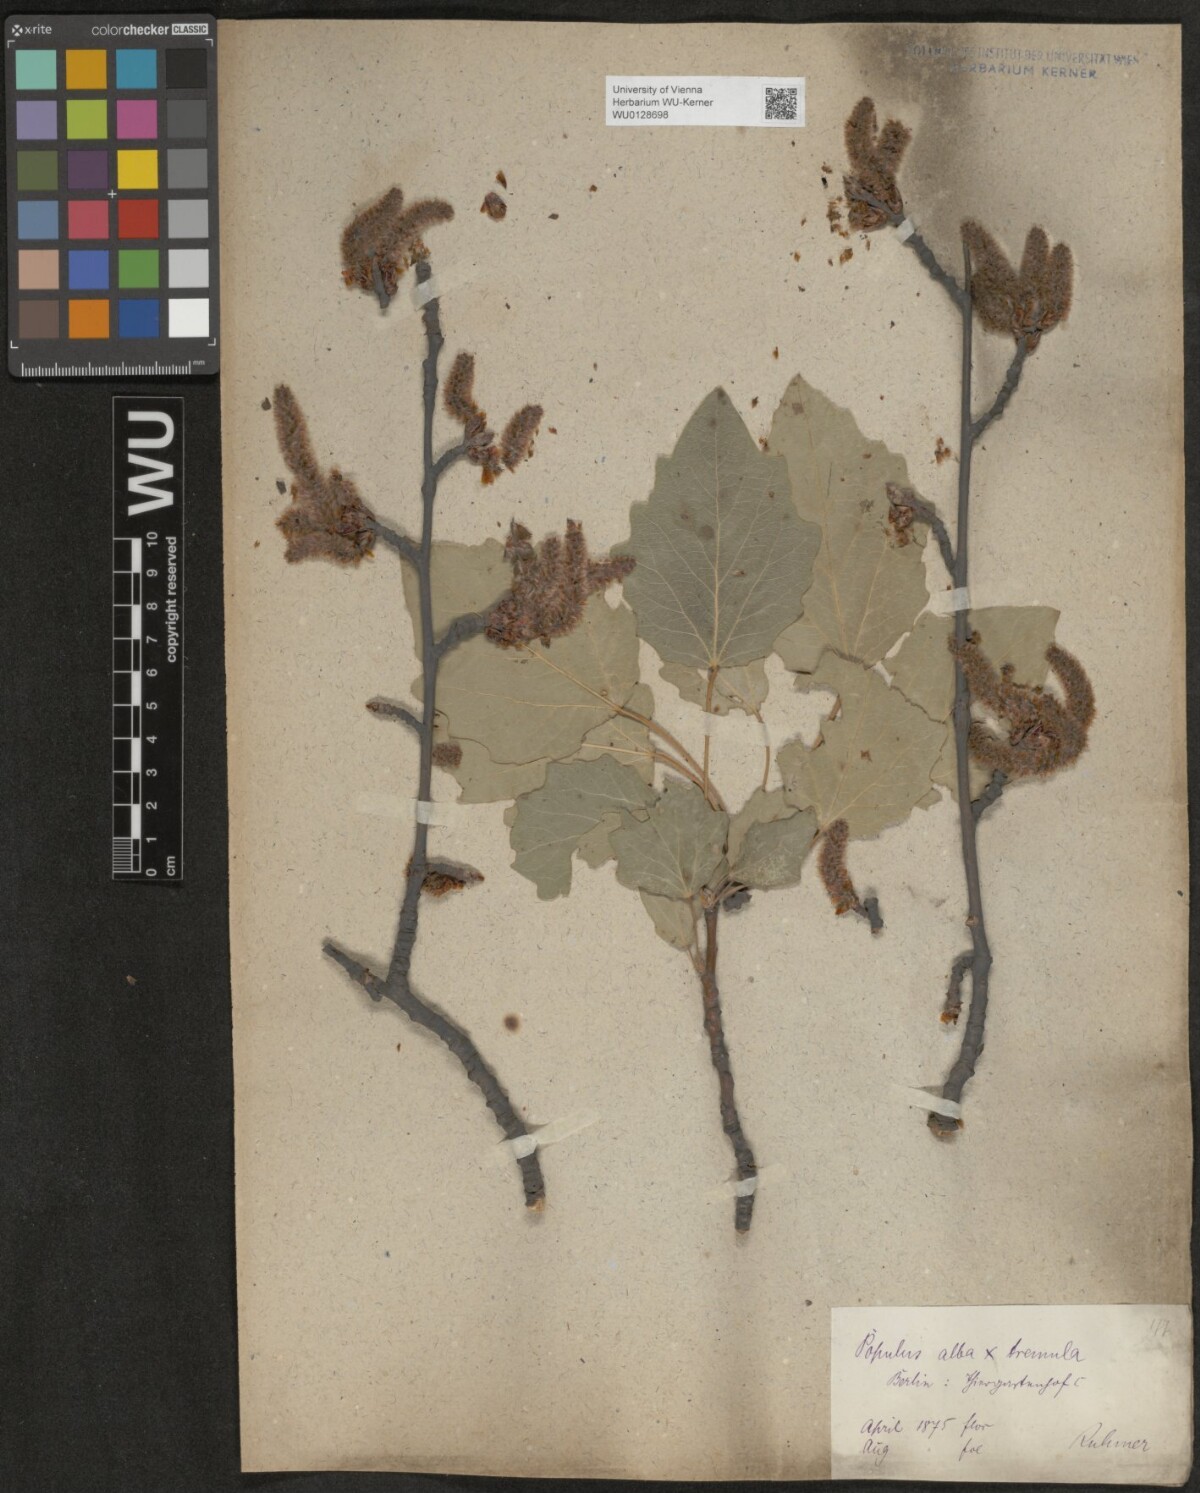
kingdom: Plantae
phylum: Tracheophyta
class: Magnoliopsida
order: Malpighiales
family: Salicaceae
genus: Populus
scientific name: Populus canescens
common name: Gray poplar
